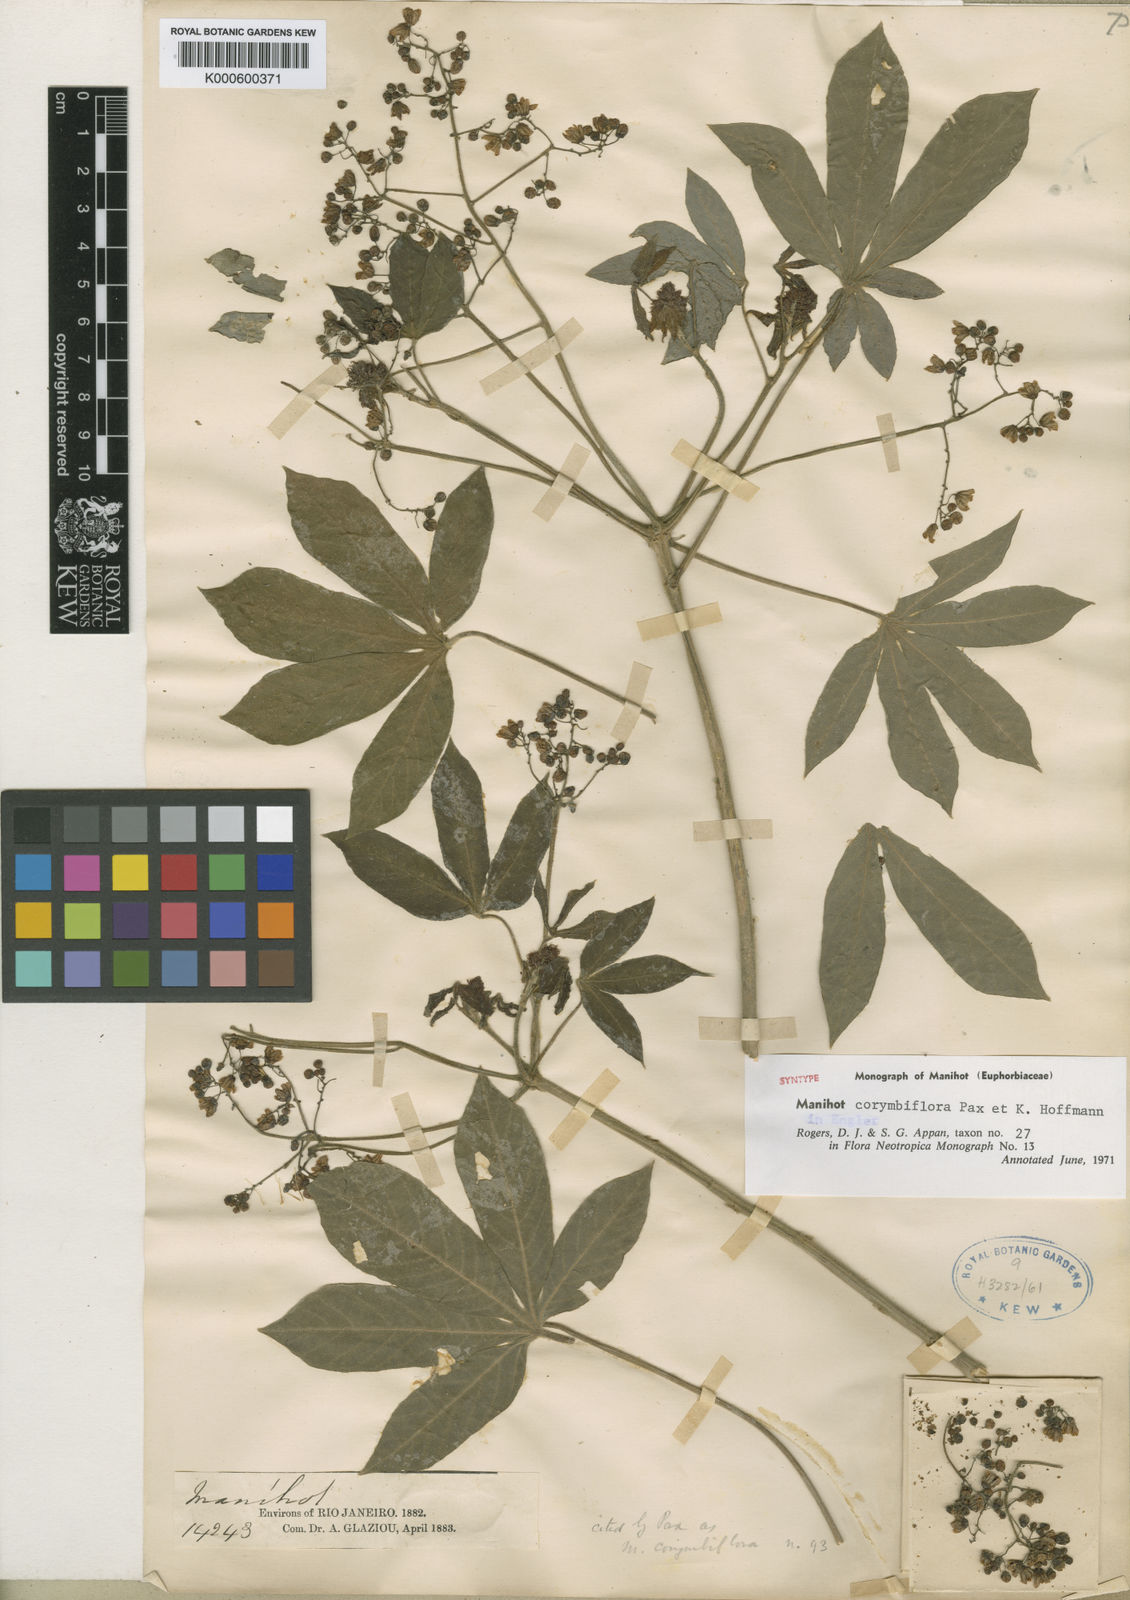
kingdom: Plantae
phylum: Tracheophyta
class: Magnoliopsida
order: Malpighiales
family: Euphorbiaceae
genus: Manihot
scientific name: Manihot corymbiflora
